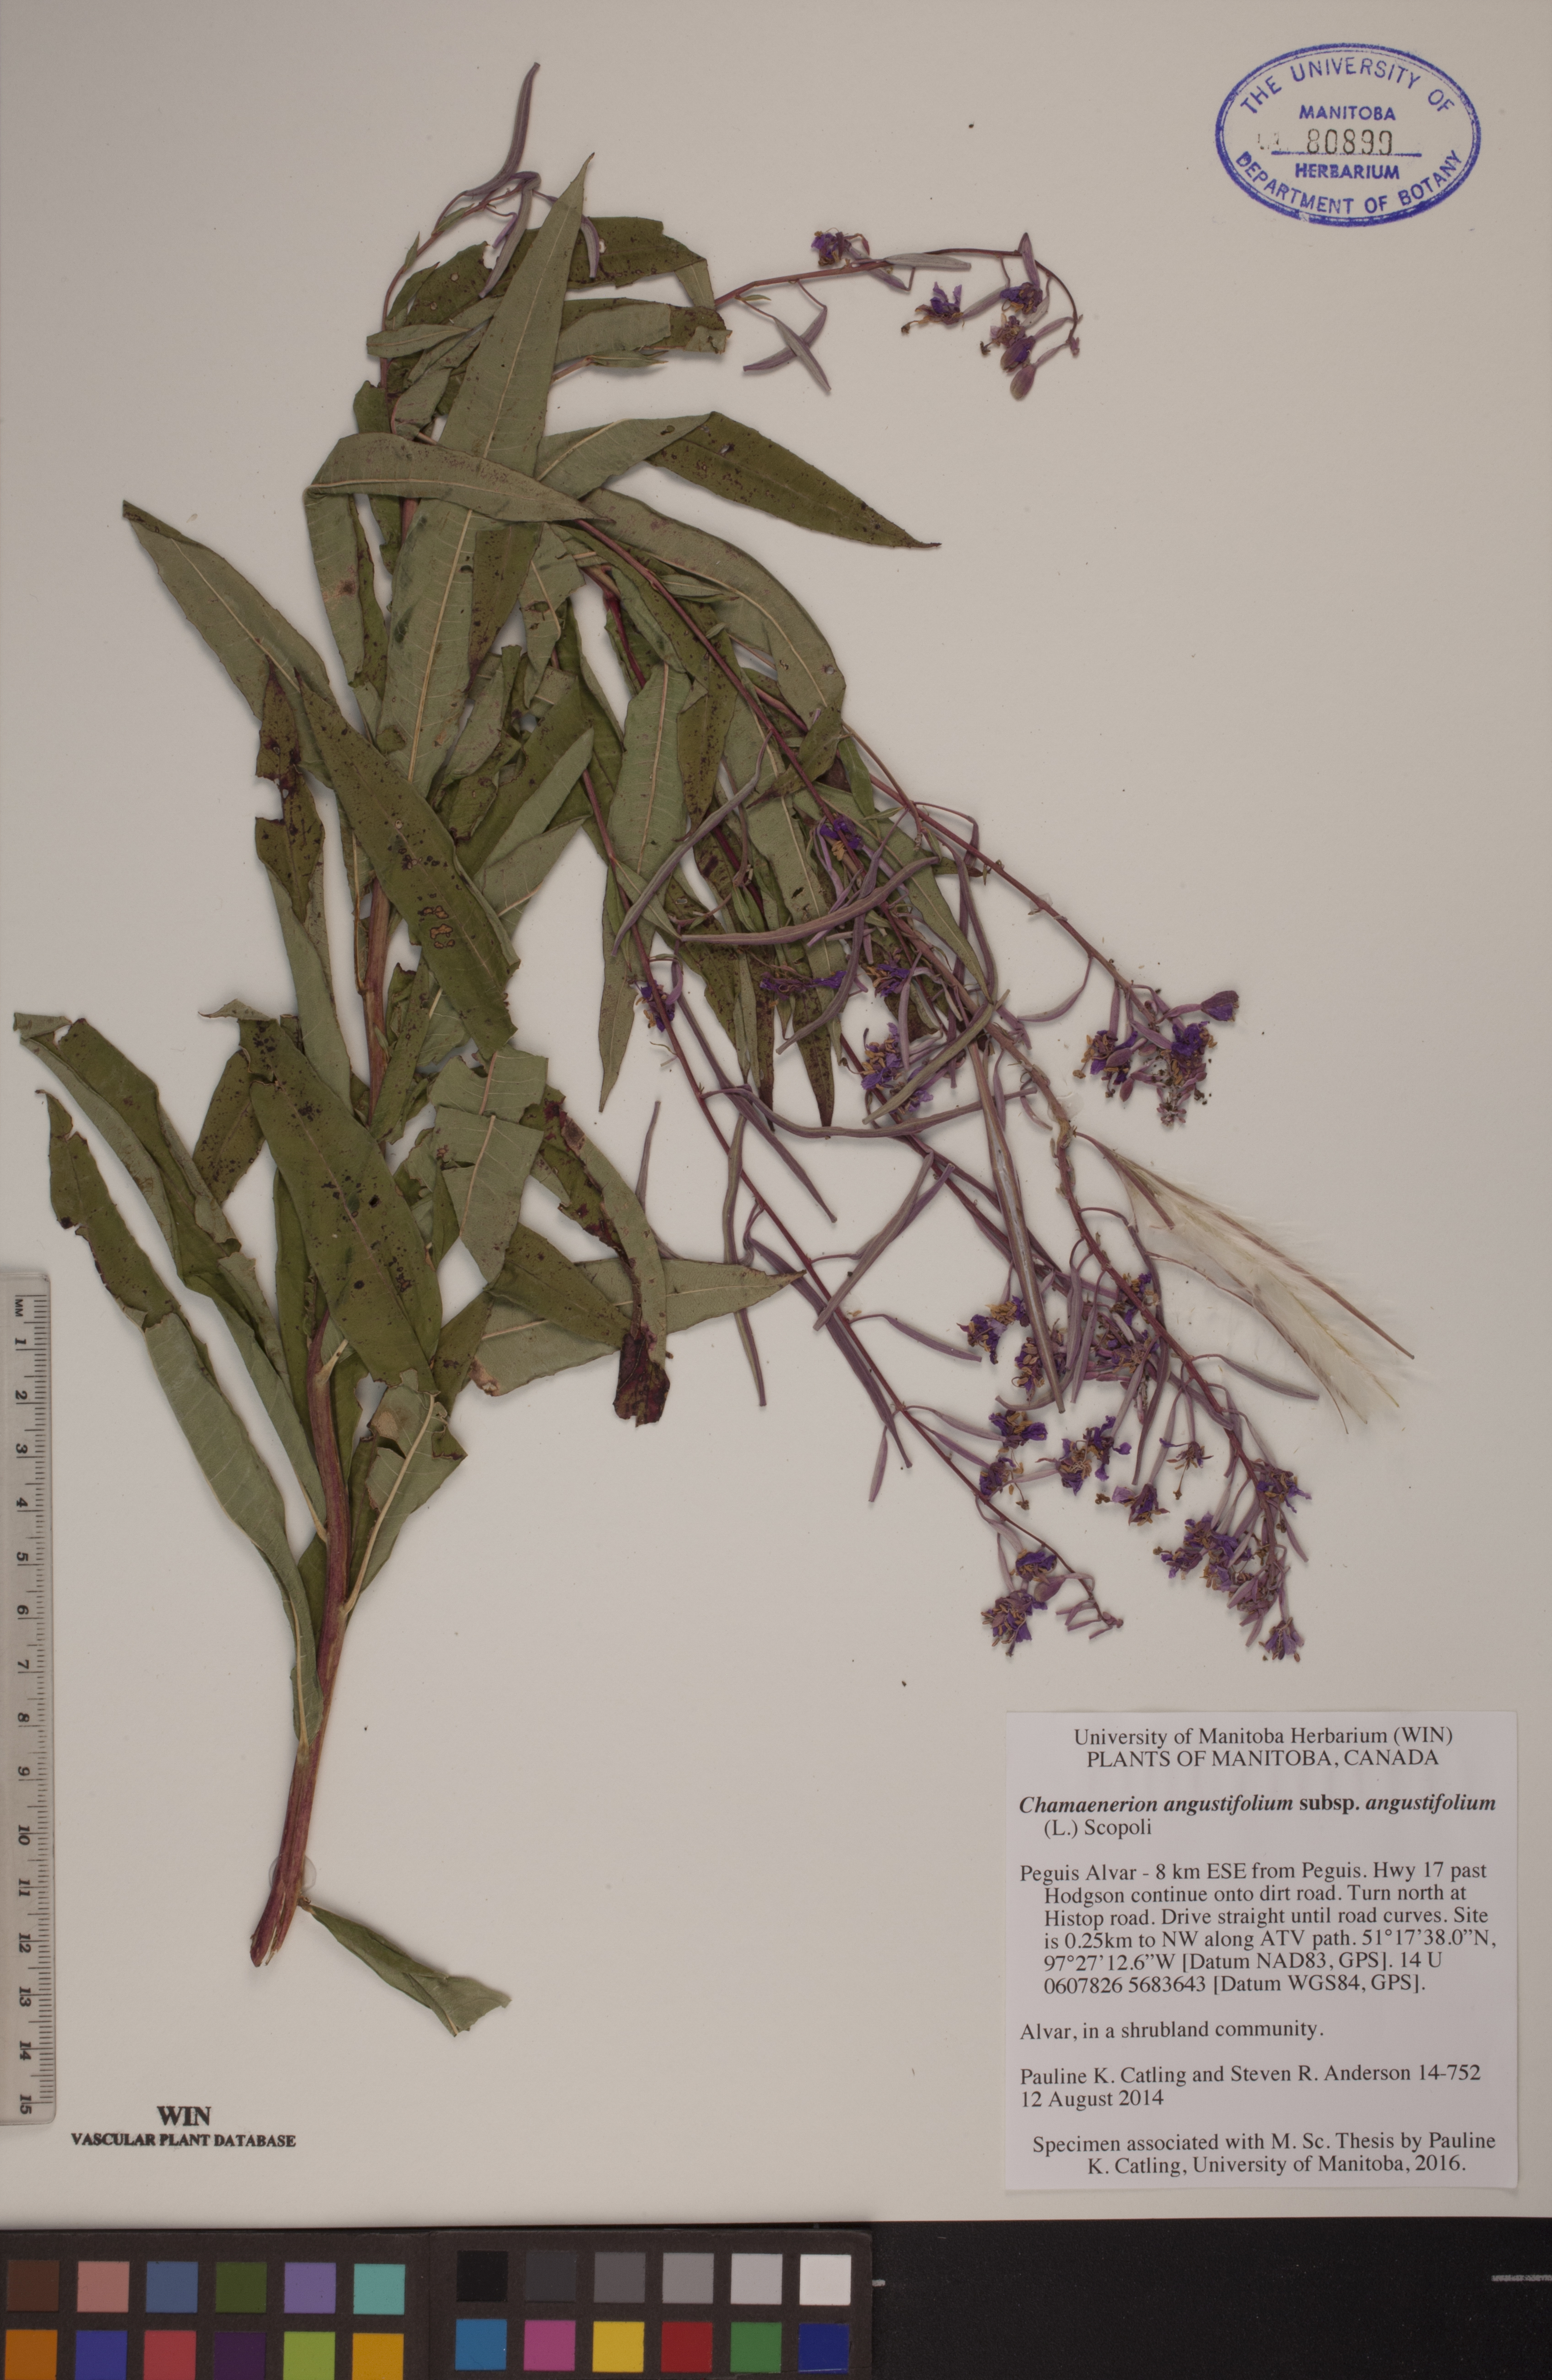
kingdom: Plantae
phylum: Tracheophyta
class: Magnoliopsida
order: Myrtales
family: Onagraceae
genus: Chamaenerion
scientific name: Chamaenerion angustifolium
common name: Fireweed
